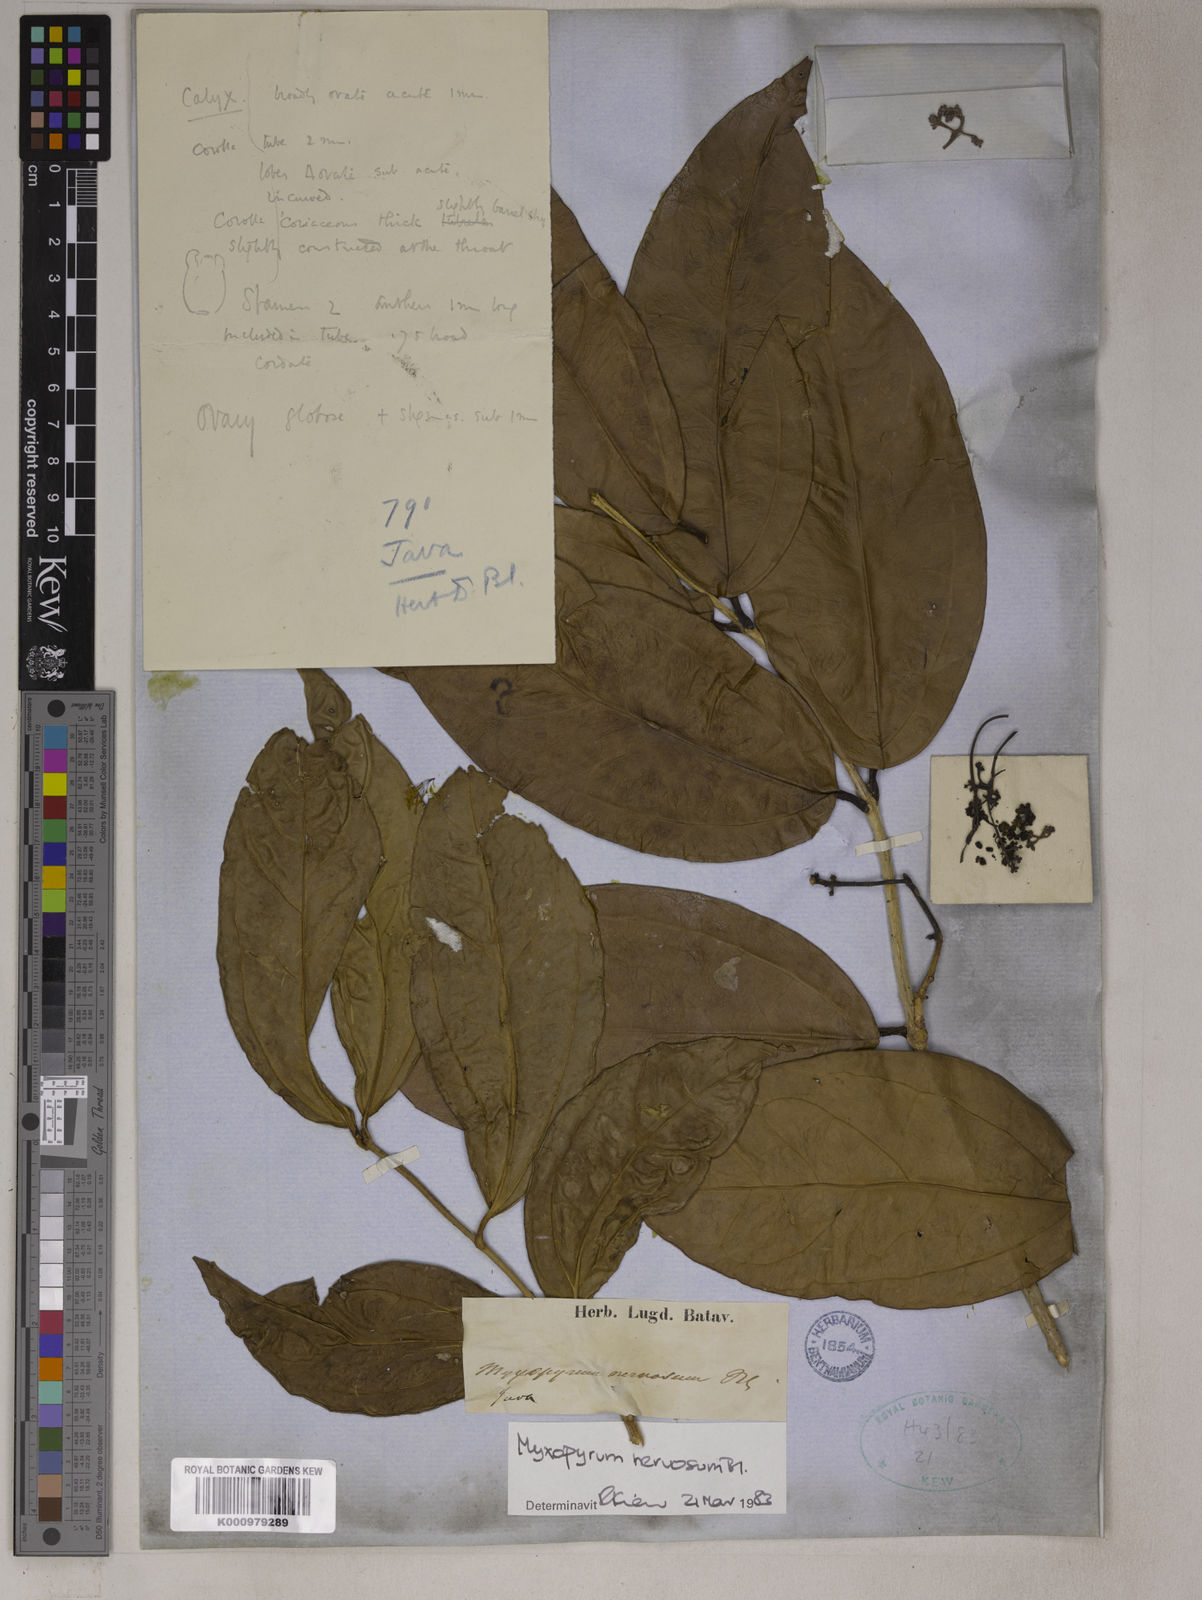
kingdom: Plantae
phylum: Tracheophyta
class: Magnoliopsida
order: Lamiales
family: Oleaceae
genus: Myxopyrum
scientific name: Myxopyrum nervosum
